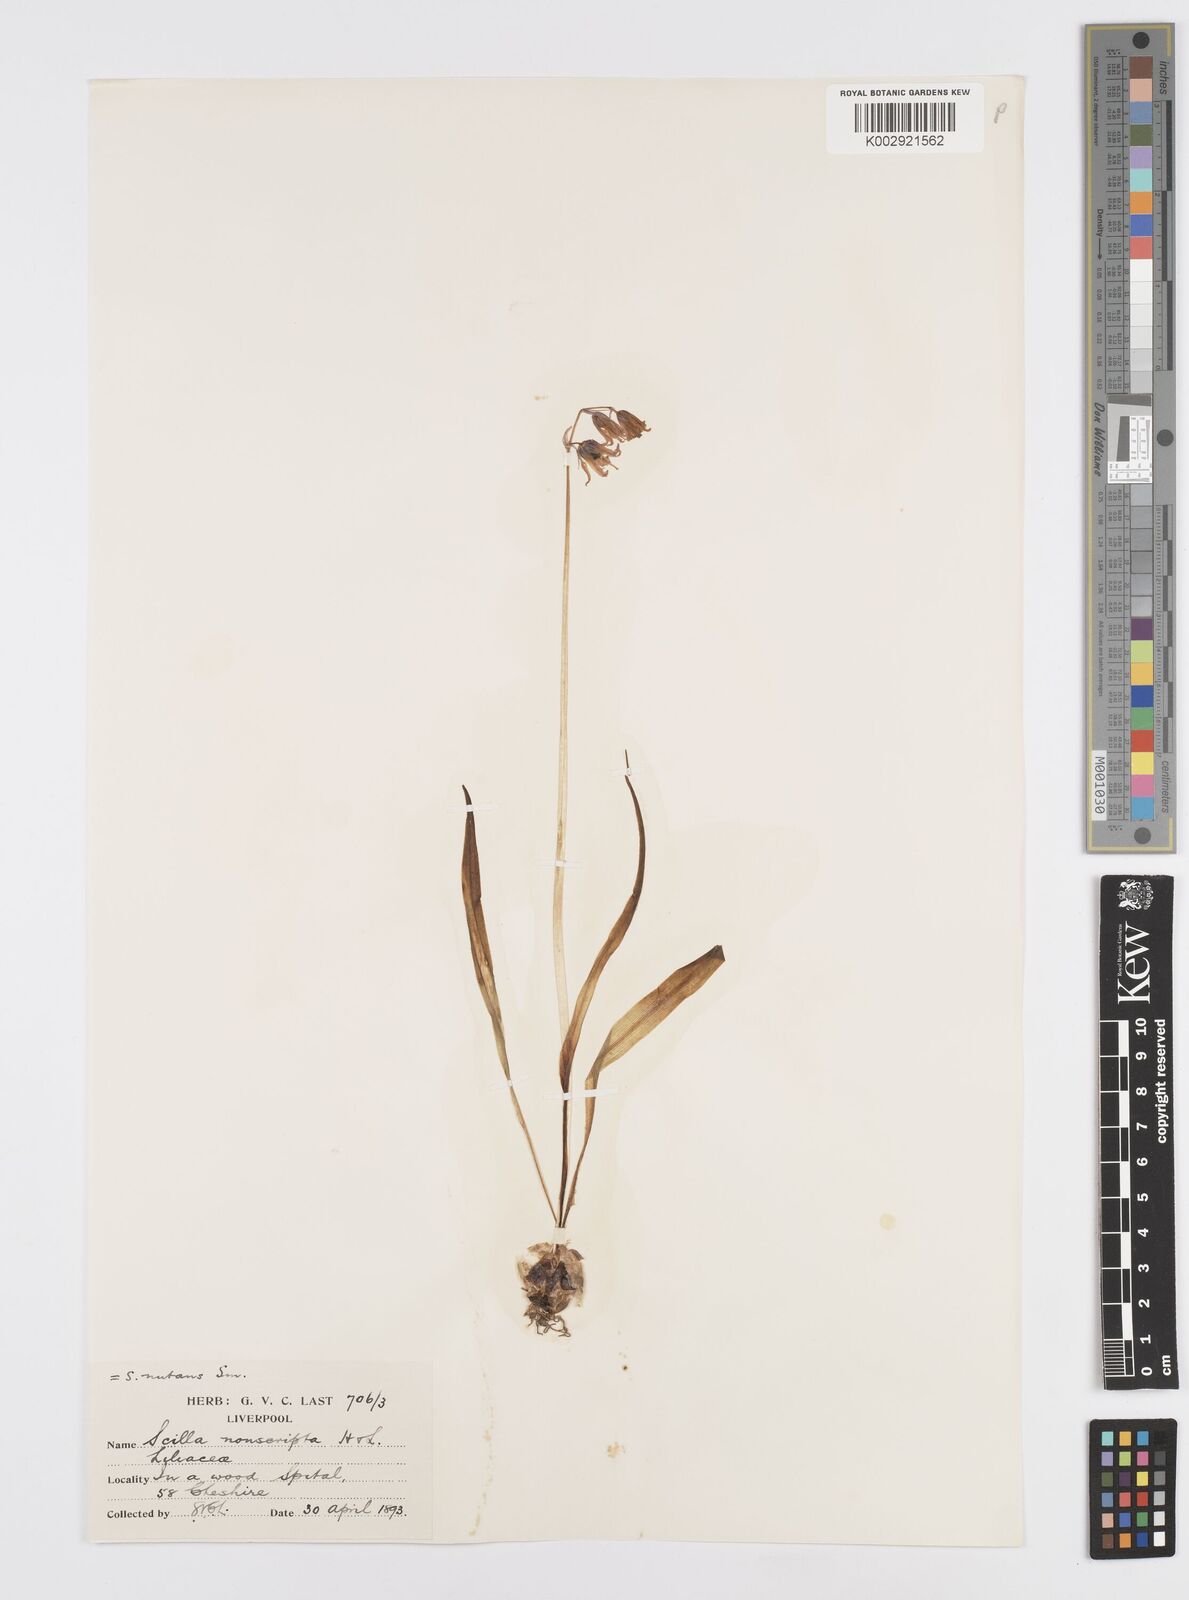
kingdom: Plantae
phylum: Tracheophyta
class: Liliopsida
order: Asparagales
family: Asparagaceae
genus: Hyacinthoides
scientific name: Hyacinthoides non-scripta
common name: Bluebell
